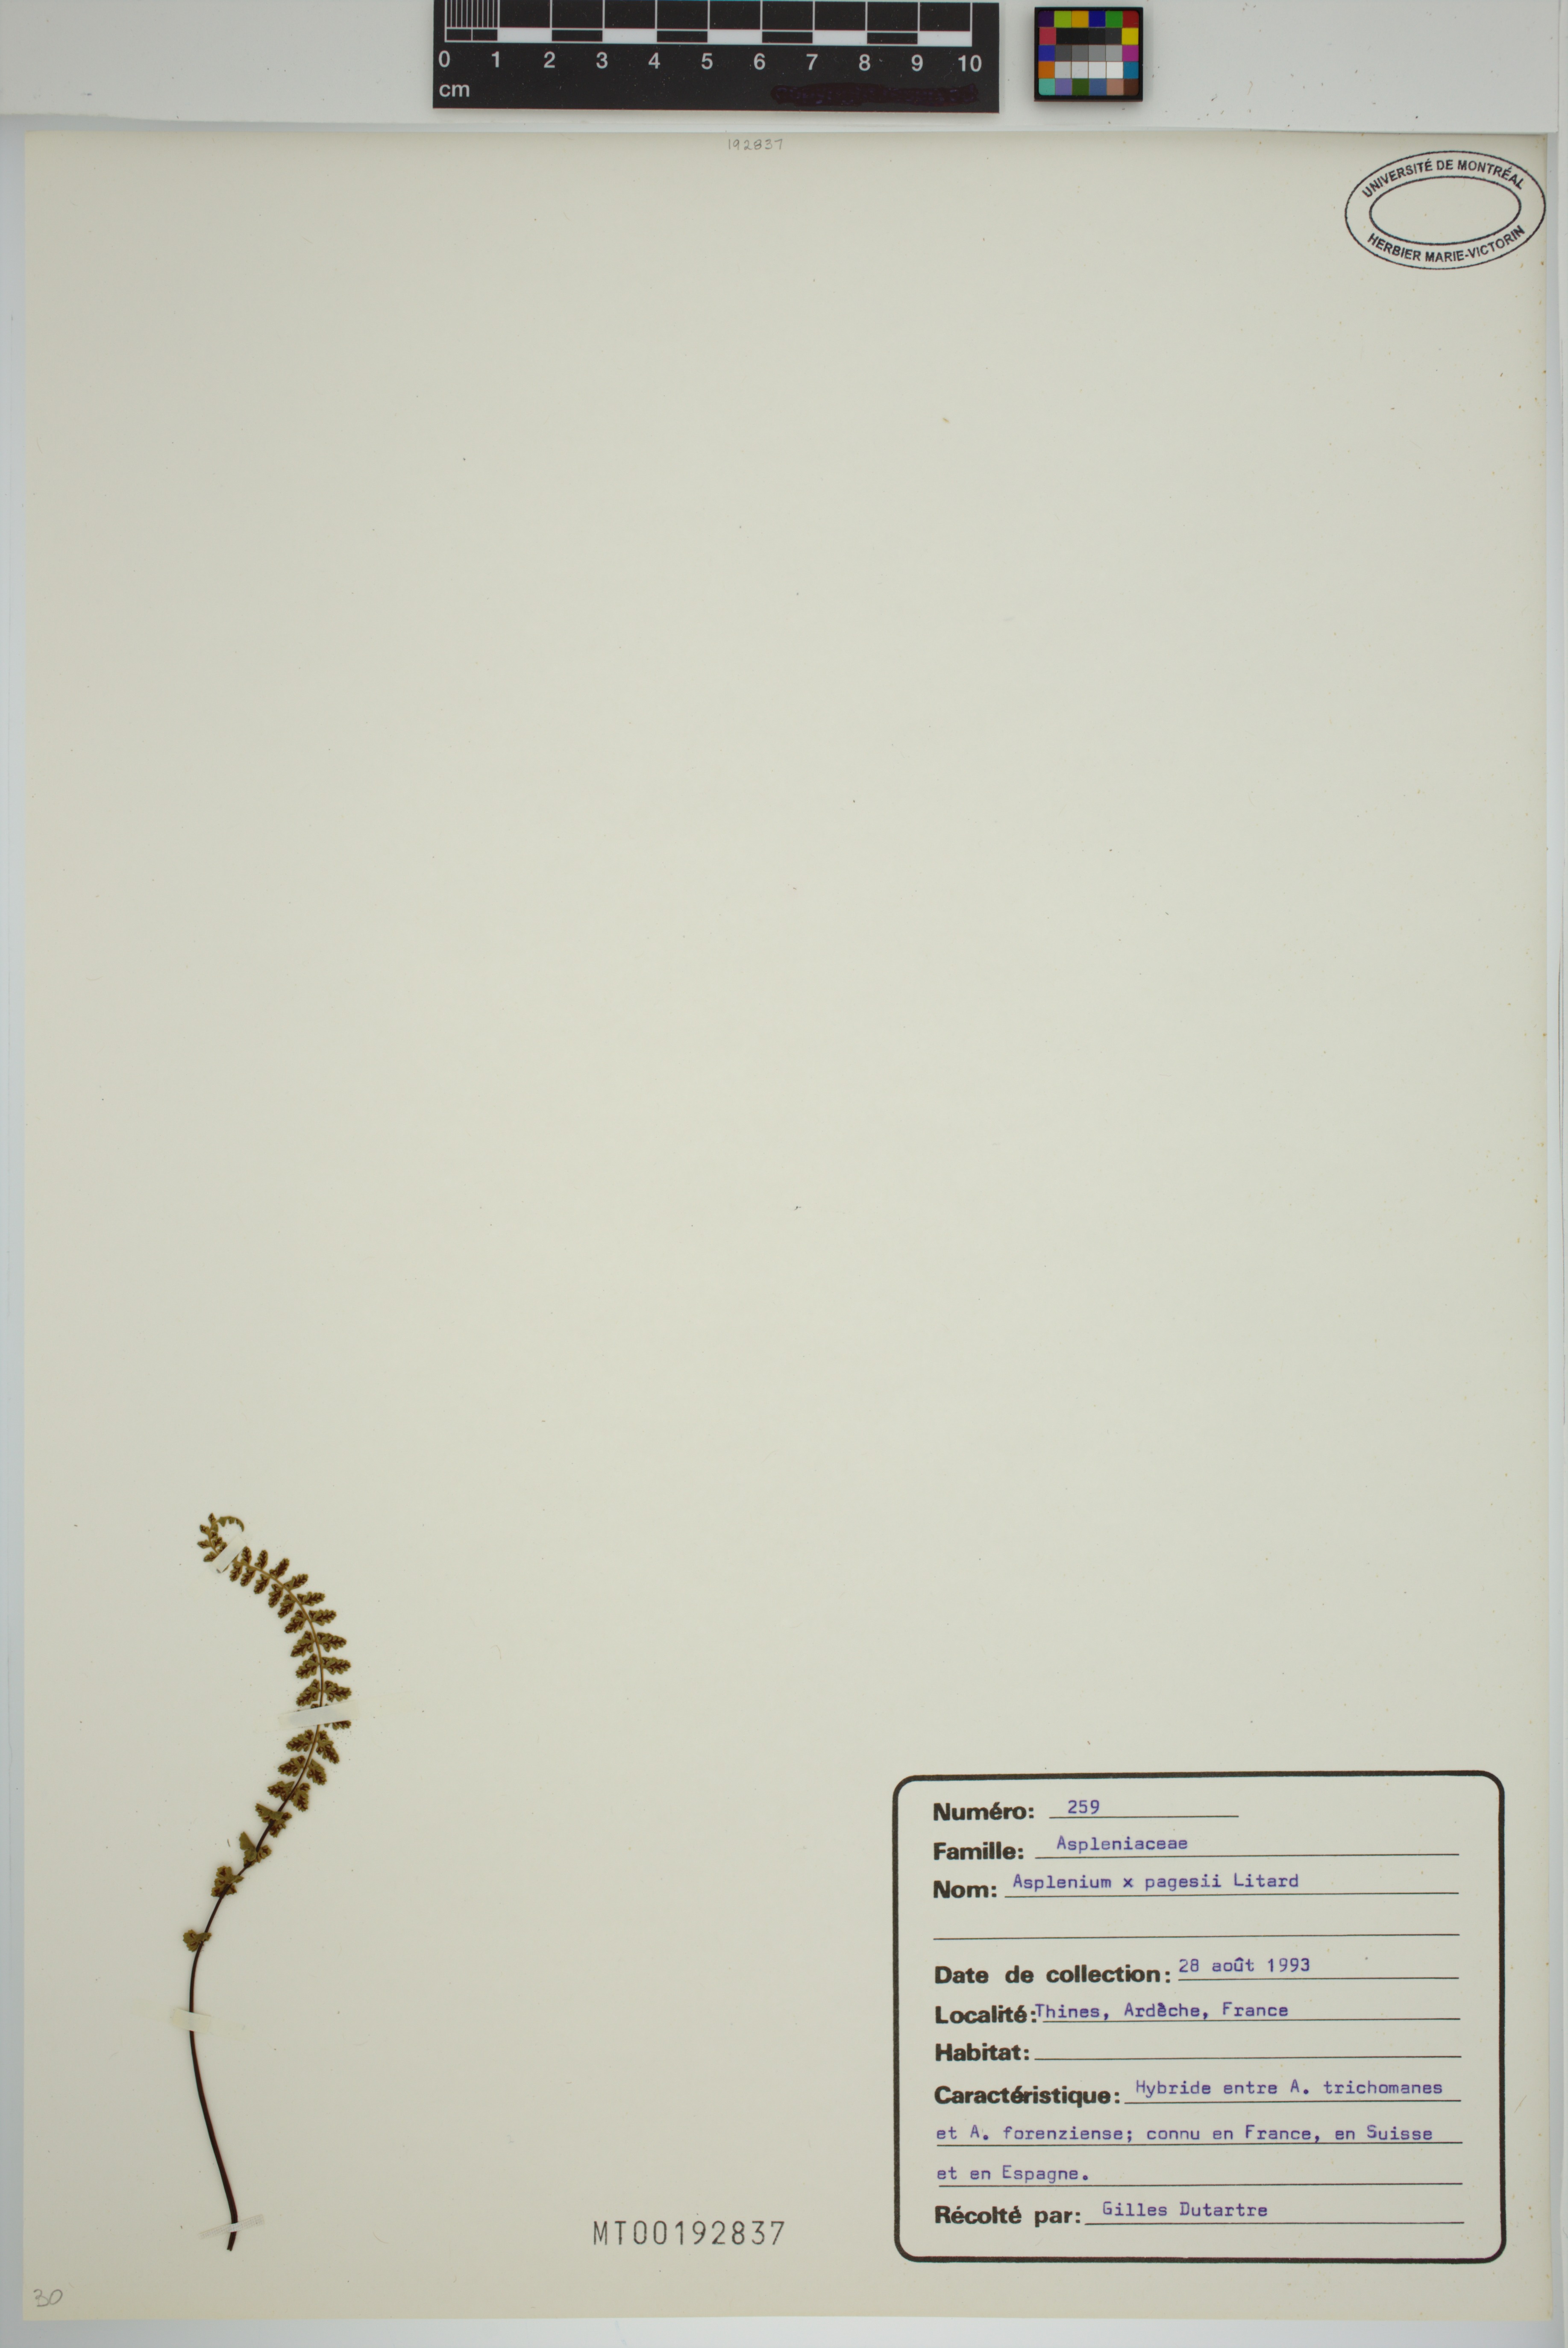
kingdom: Plantae
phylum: Tracheophyta
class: Polypodiopsida
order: Polypodiales
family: Aspleniaceae
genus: Asplenium
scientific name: Asplenium pagesii
